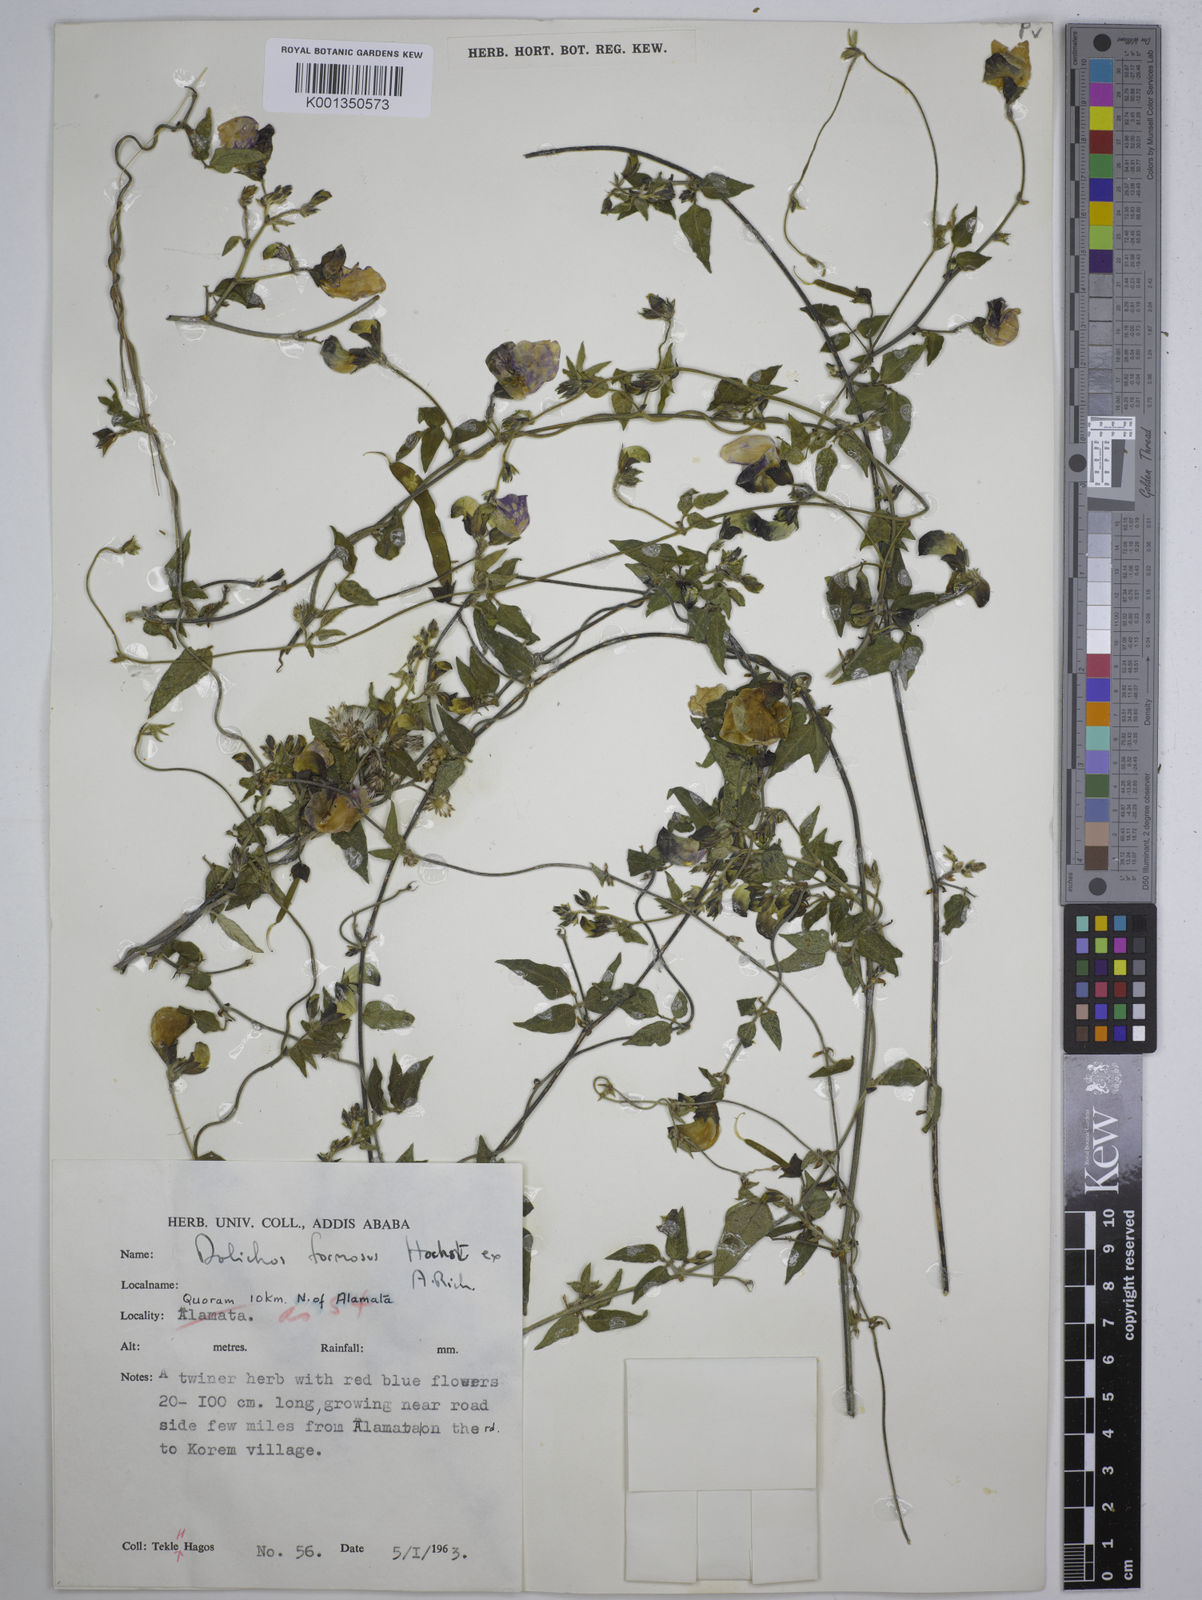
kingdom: Plantae
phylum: Tracheophyta
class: Magnoliopsida
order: Fabales
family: Fabaceae
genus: Dolichos
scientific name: Dolichos
